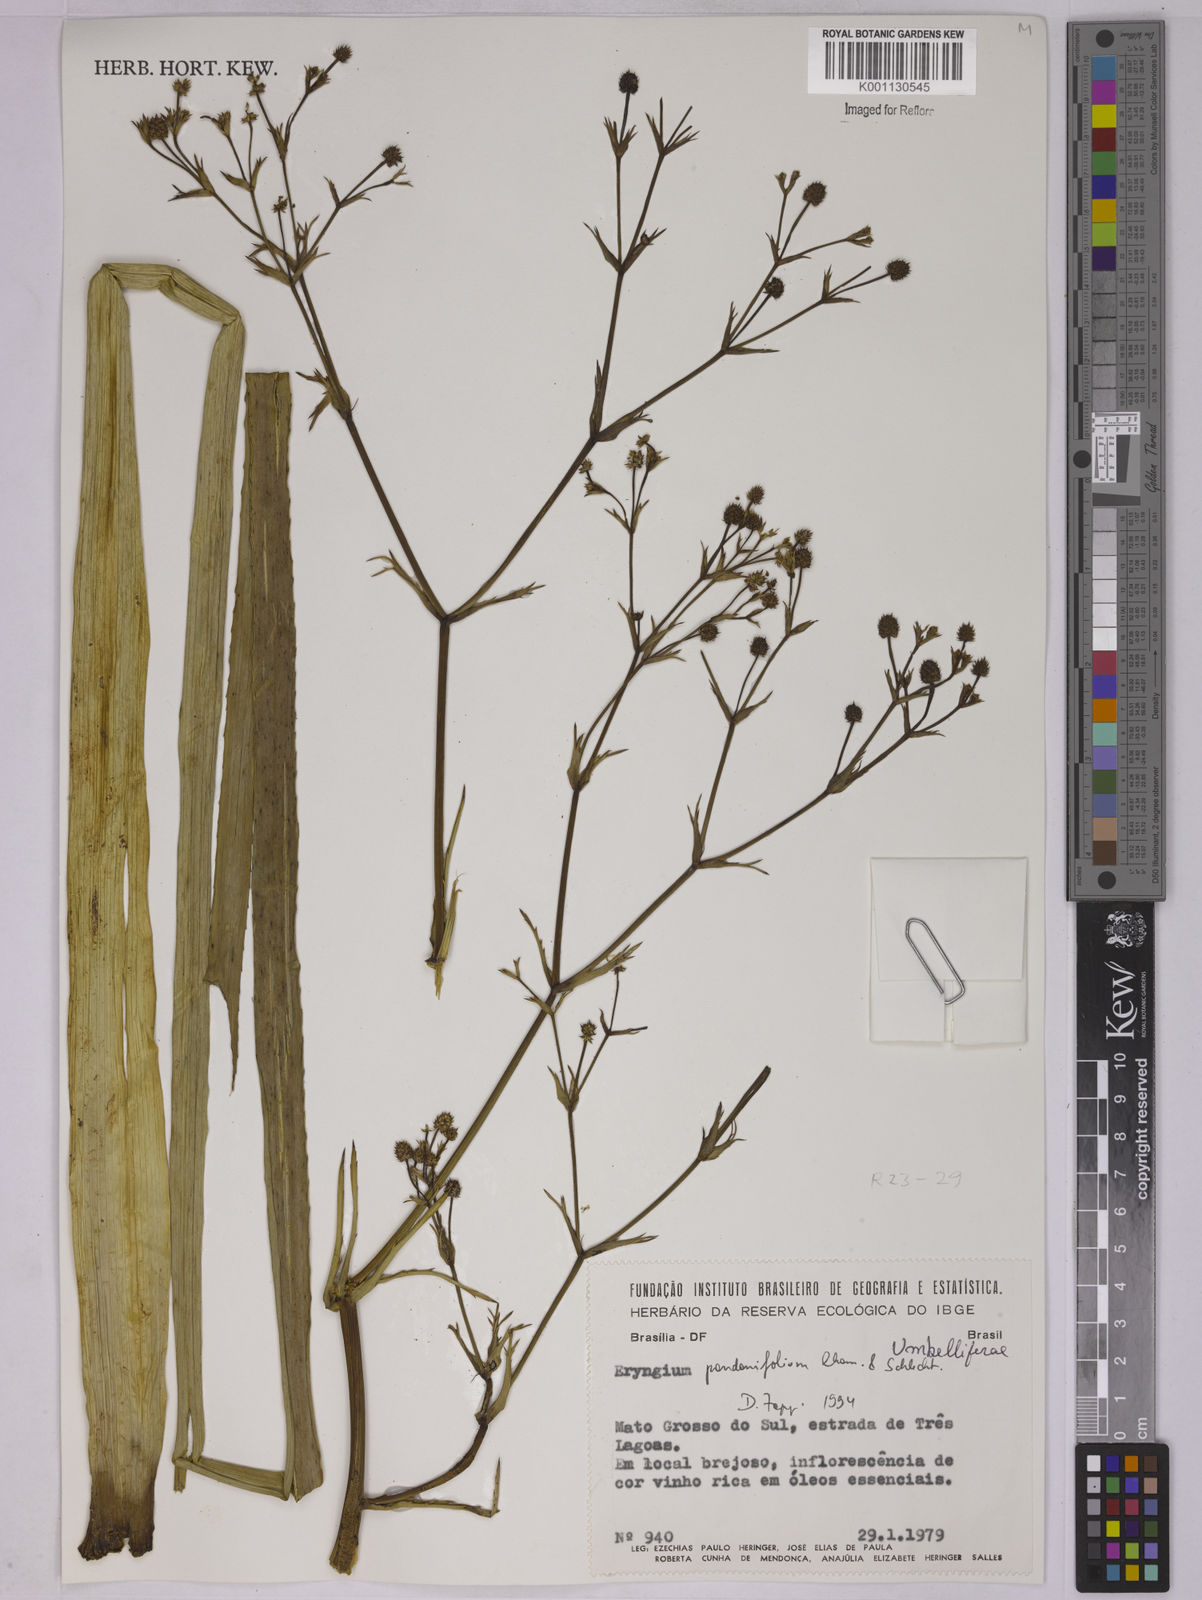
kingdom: Plantae
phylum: Tracheophyta
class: Magnoliopsida
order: Apiales
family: Apiaceae
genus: Eryngium
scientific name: Eryngium pandanifolium
